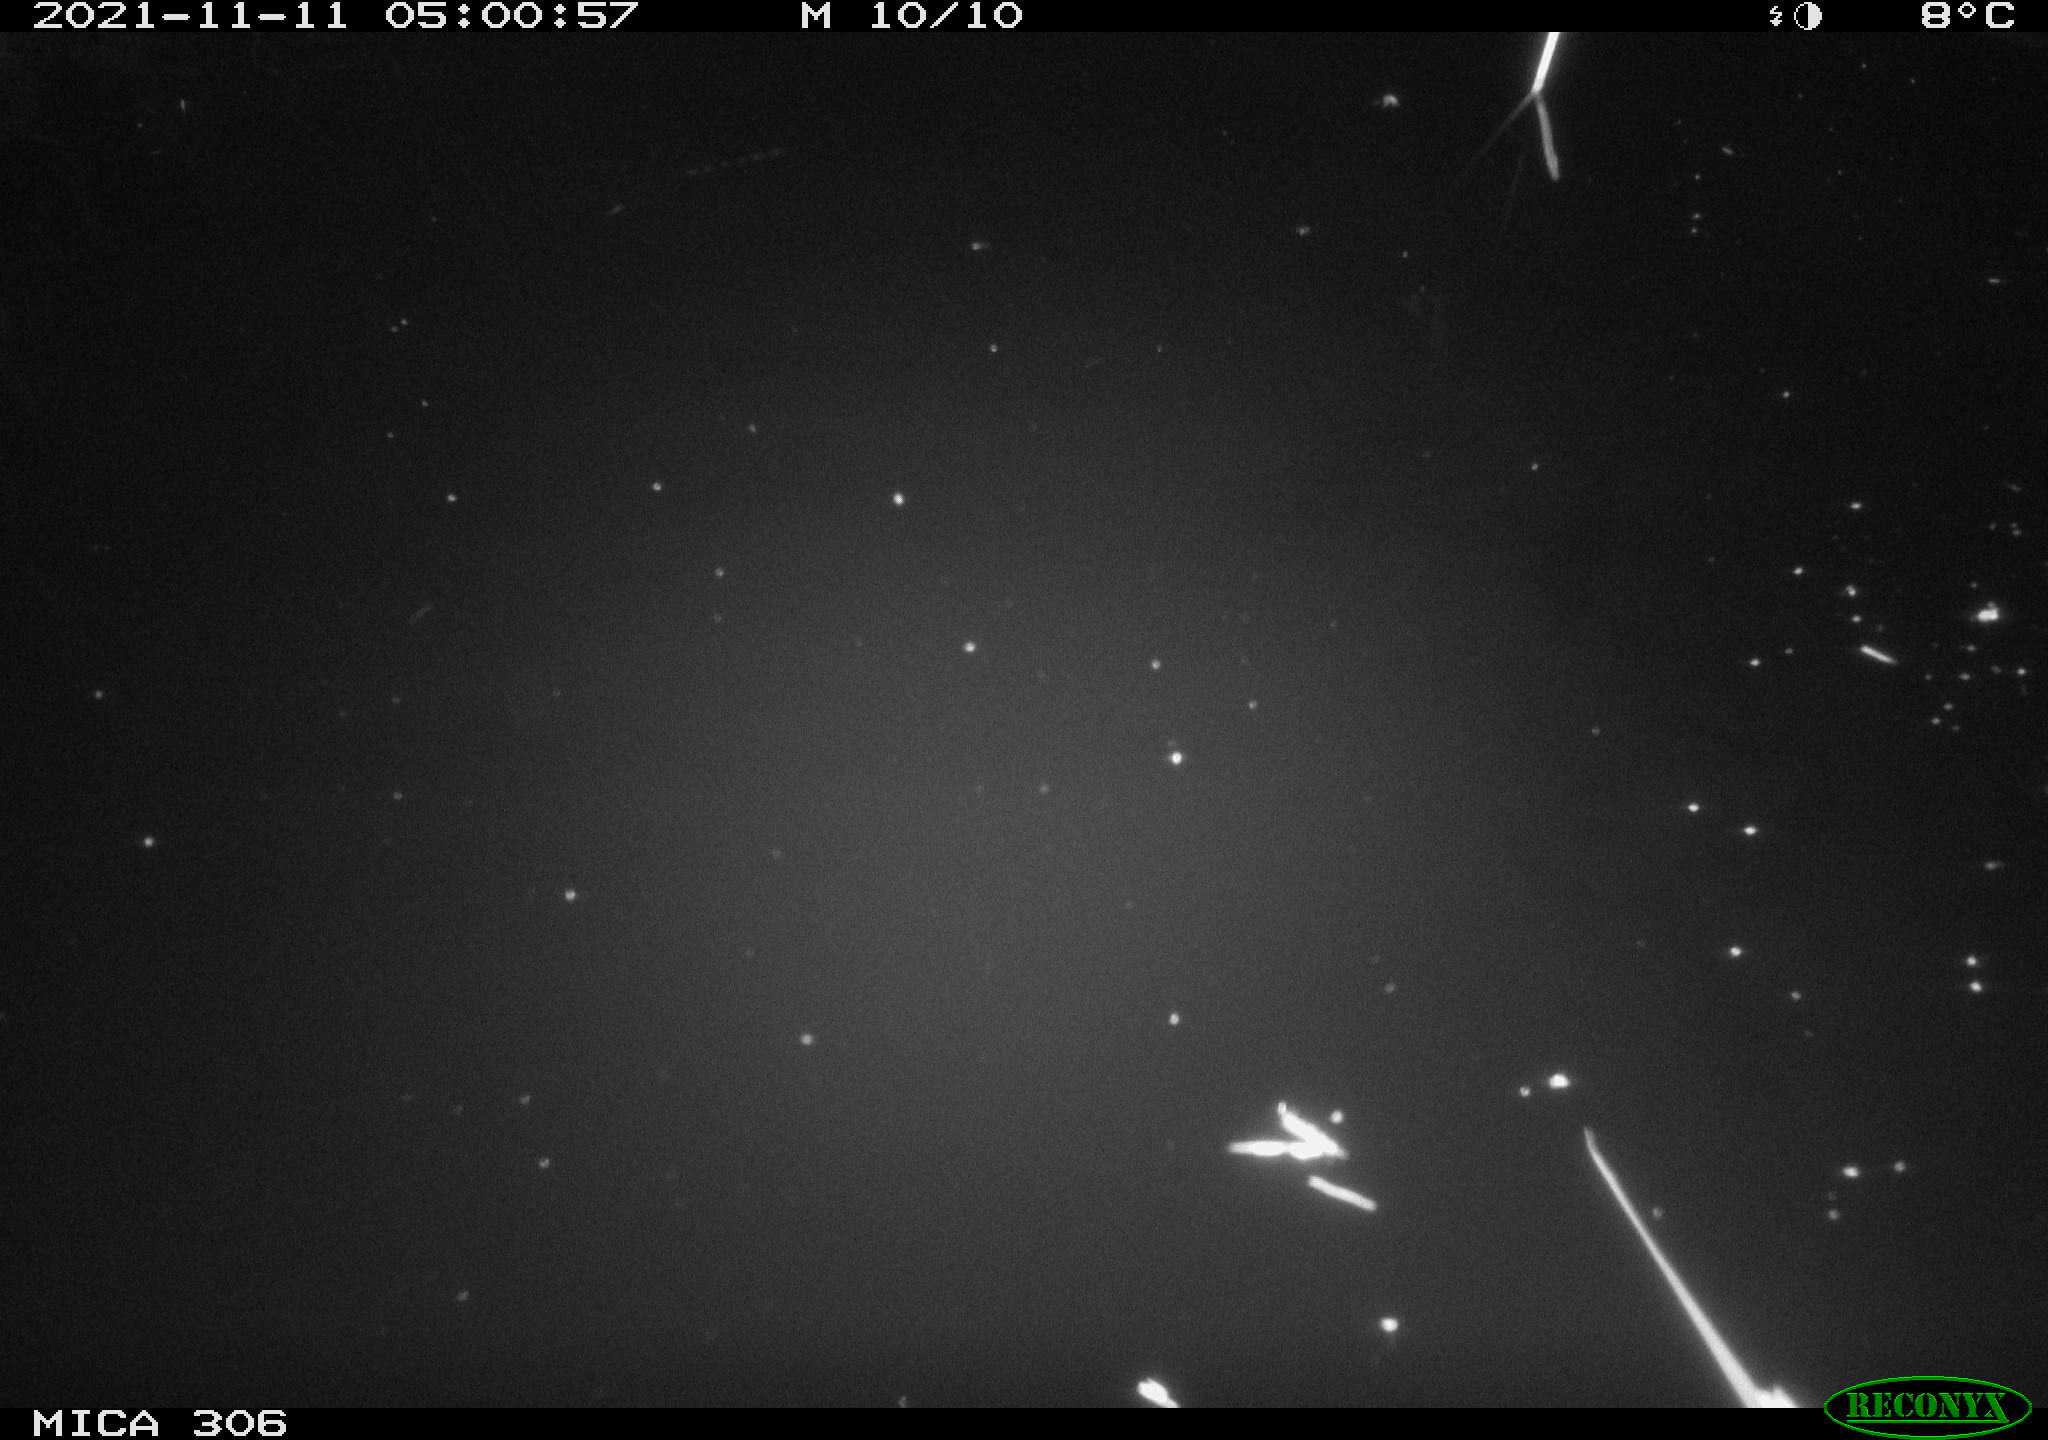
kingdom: Animalia
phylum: Chordata
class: Mammalia
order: Rodentia
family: Cricetidae
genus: Ondatra
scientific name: Ondatra zibethicus
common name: Muskrat
